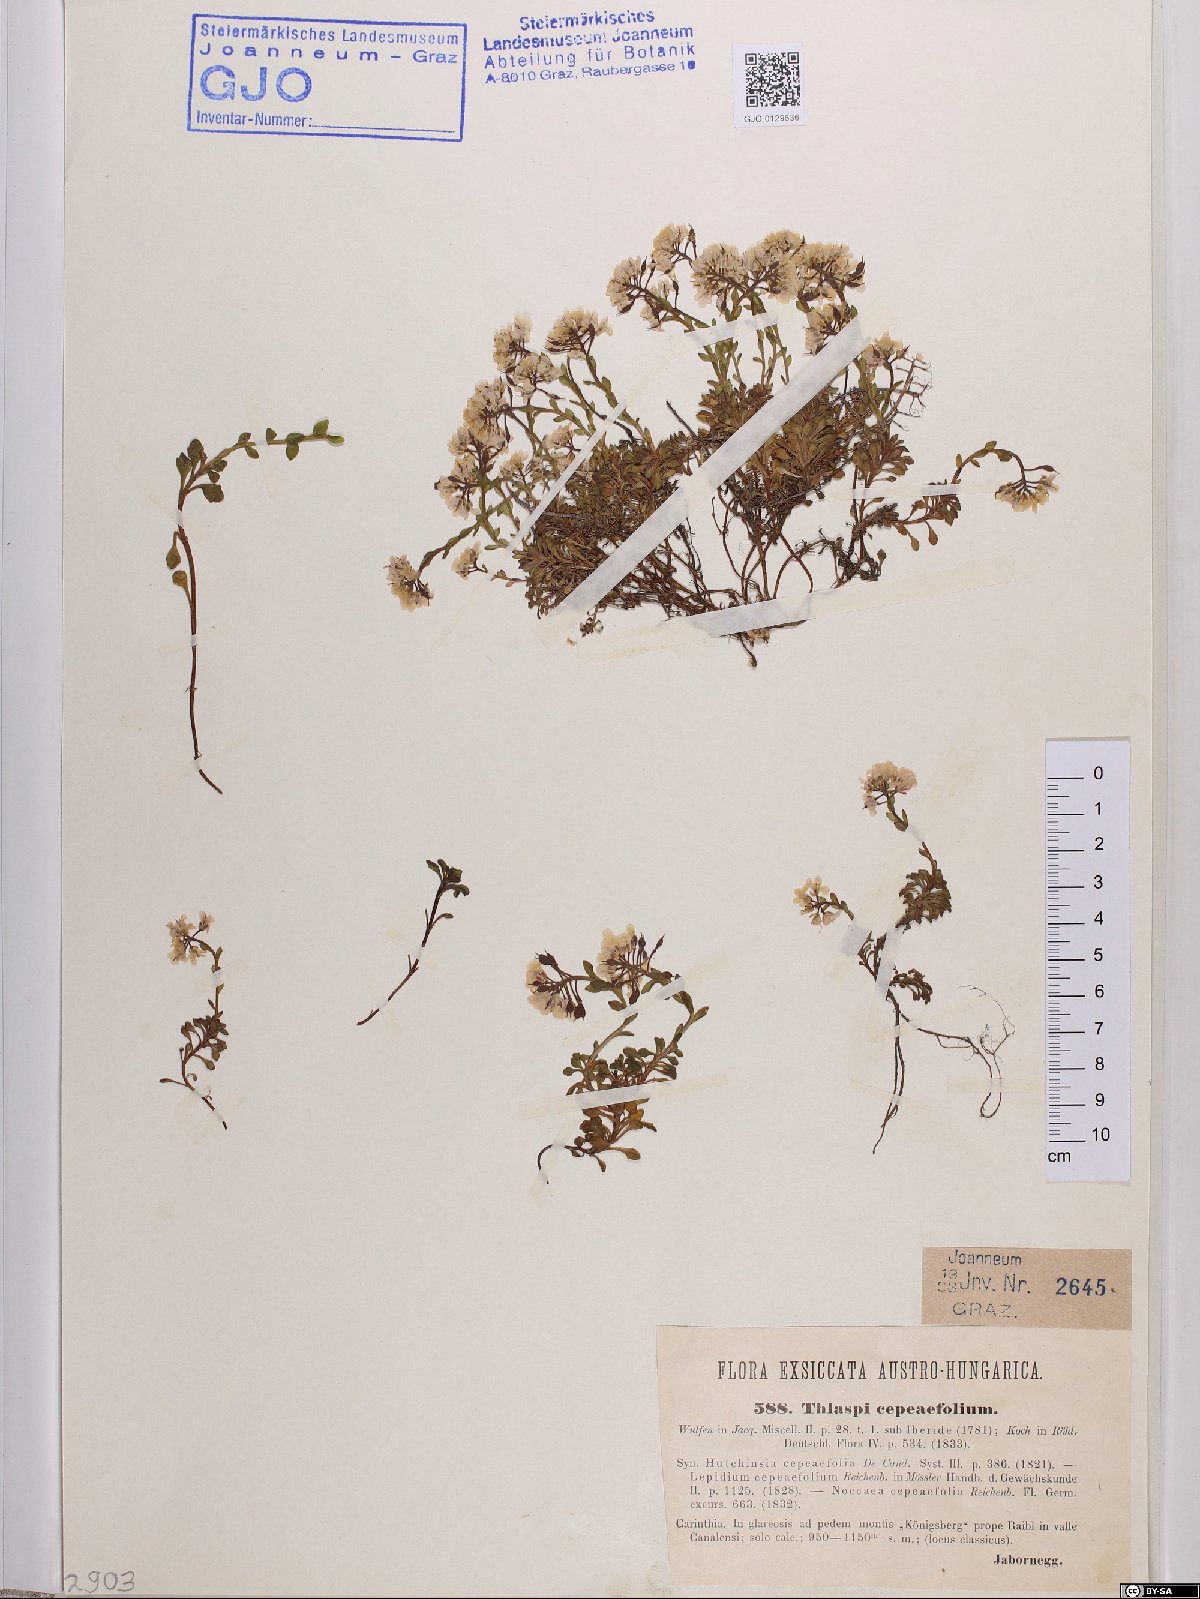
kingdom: Plantae
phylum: Tracheophyta
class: Magnoliopsida
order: Brassicales
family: Brassicaceae
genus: Noccaea
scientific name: Noccaea cepaeifolia
